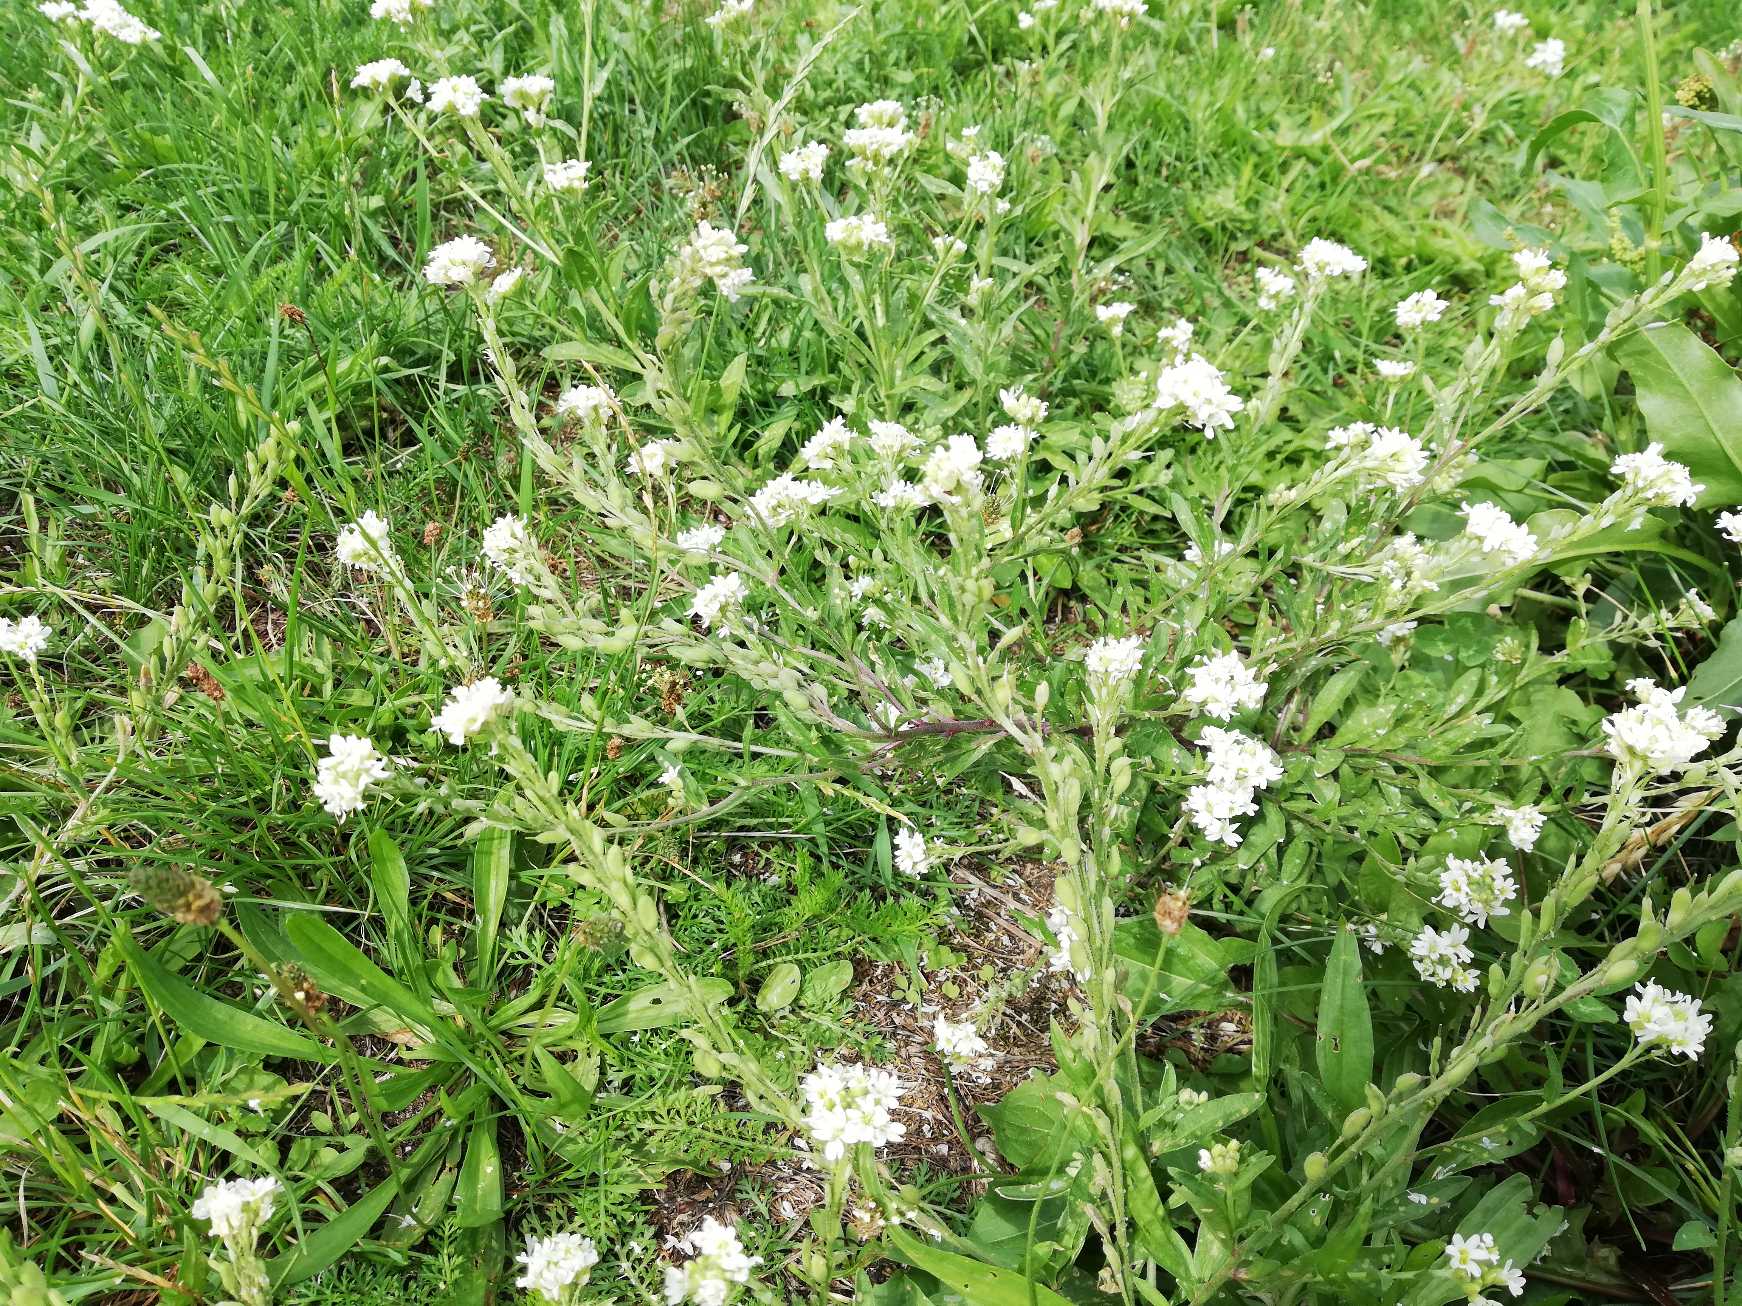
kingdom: Plantae
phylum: Tracheophyta
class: Magnoliopsida
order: Brassicales
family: Brassicaceae
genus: Berteroa
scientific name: Berteroa incana
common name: Kløvplade
